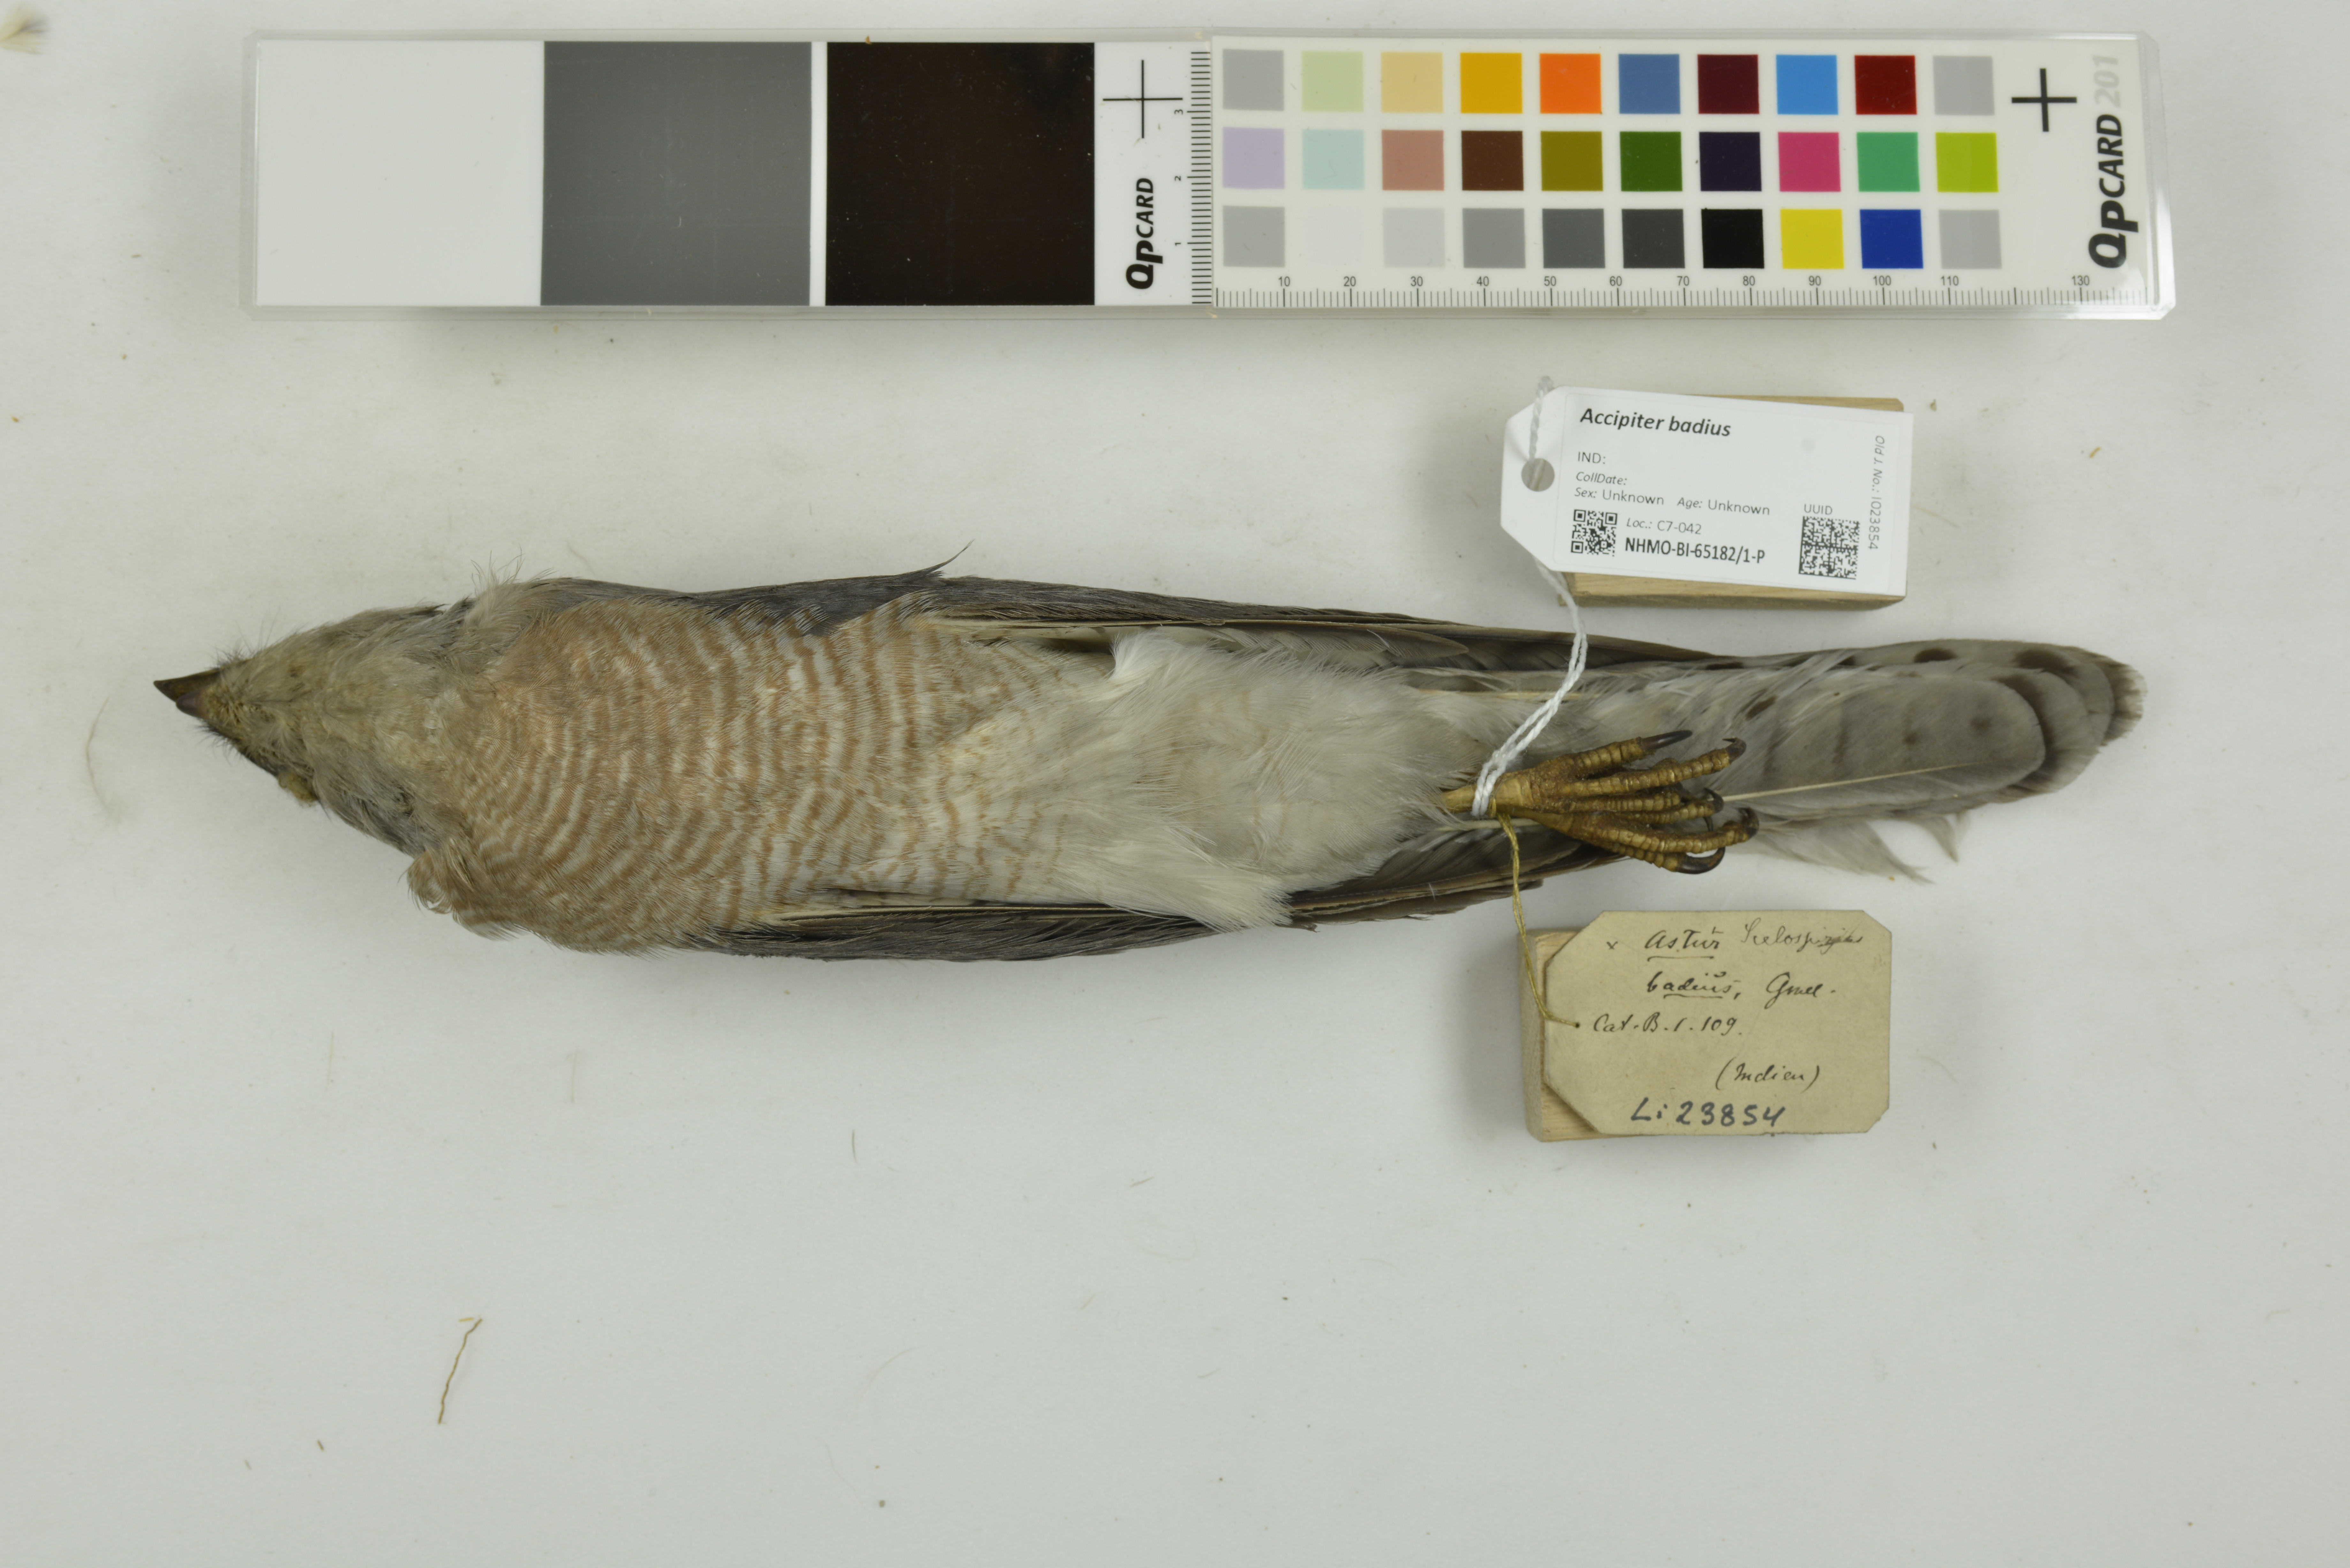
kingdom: Animalia
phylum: Chordata
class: Aves
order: Accipitriformes
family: Accipitridae
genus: Accipiter
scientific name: Accipiter badius
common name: Shikra
